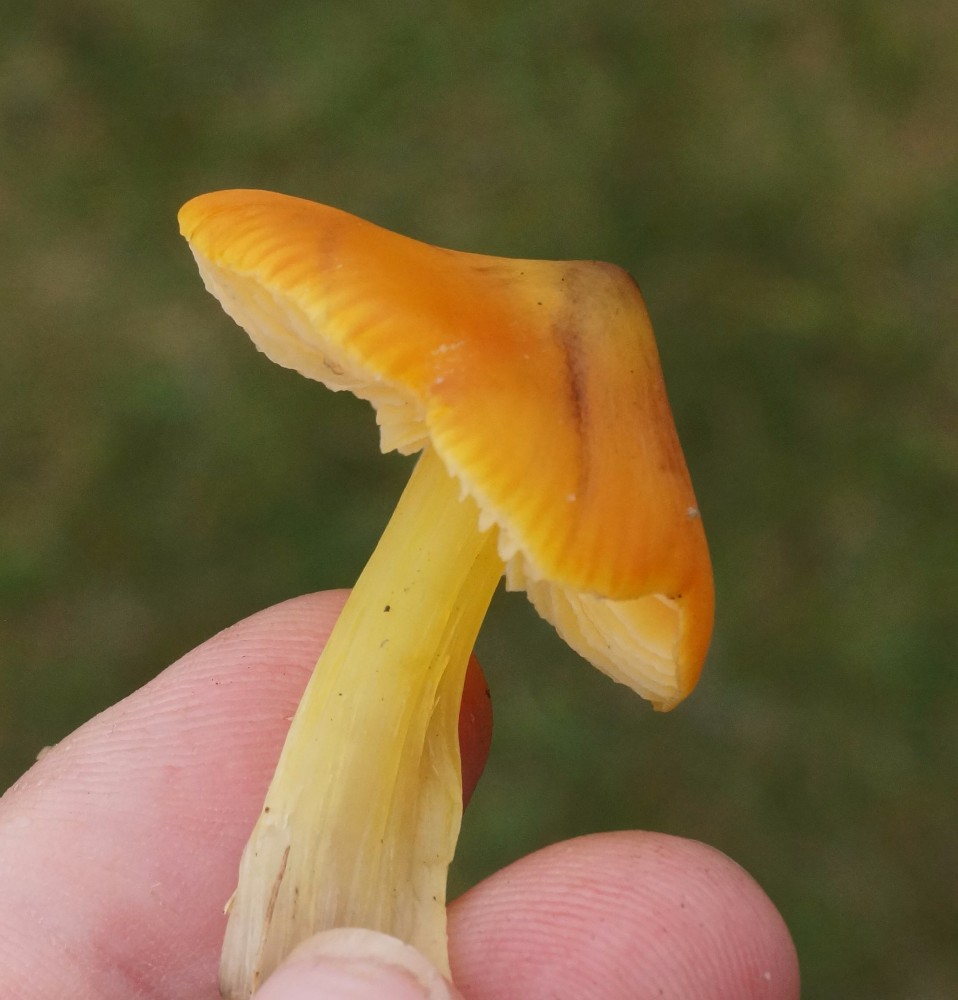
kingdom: Fungi
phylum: Basidiomycota
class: Agaricomycetes
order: Agaricales
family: Hygrophoraceae
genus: Hygrocybe
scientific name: Hygrocybe acutoconica
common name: spidspuklet vokshat
